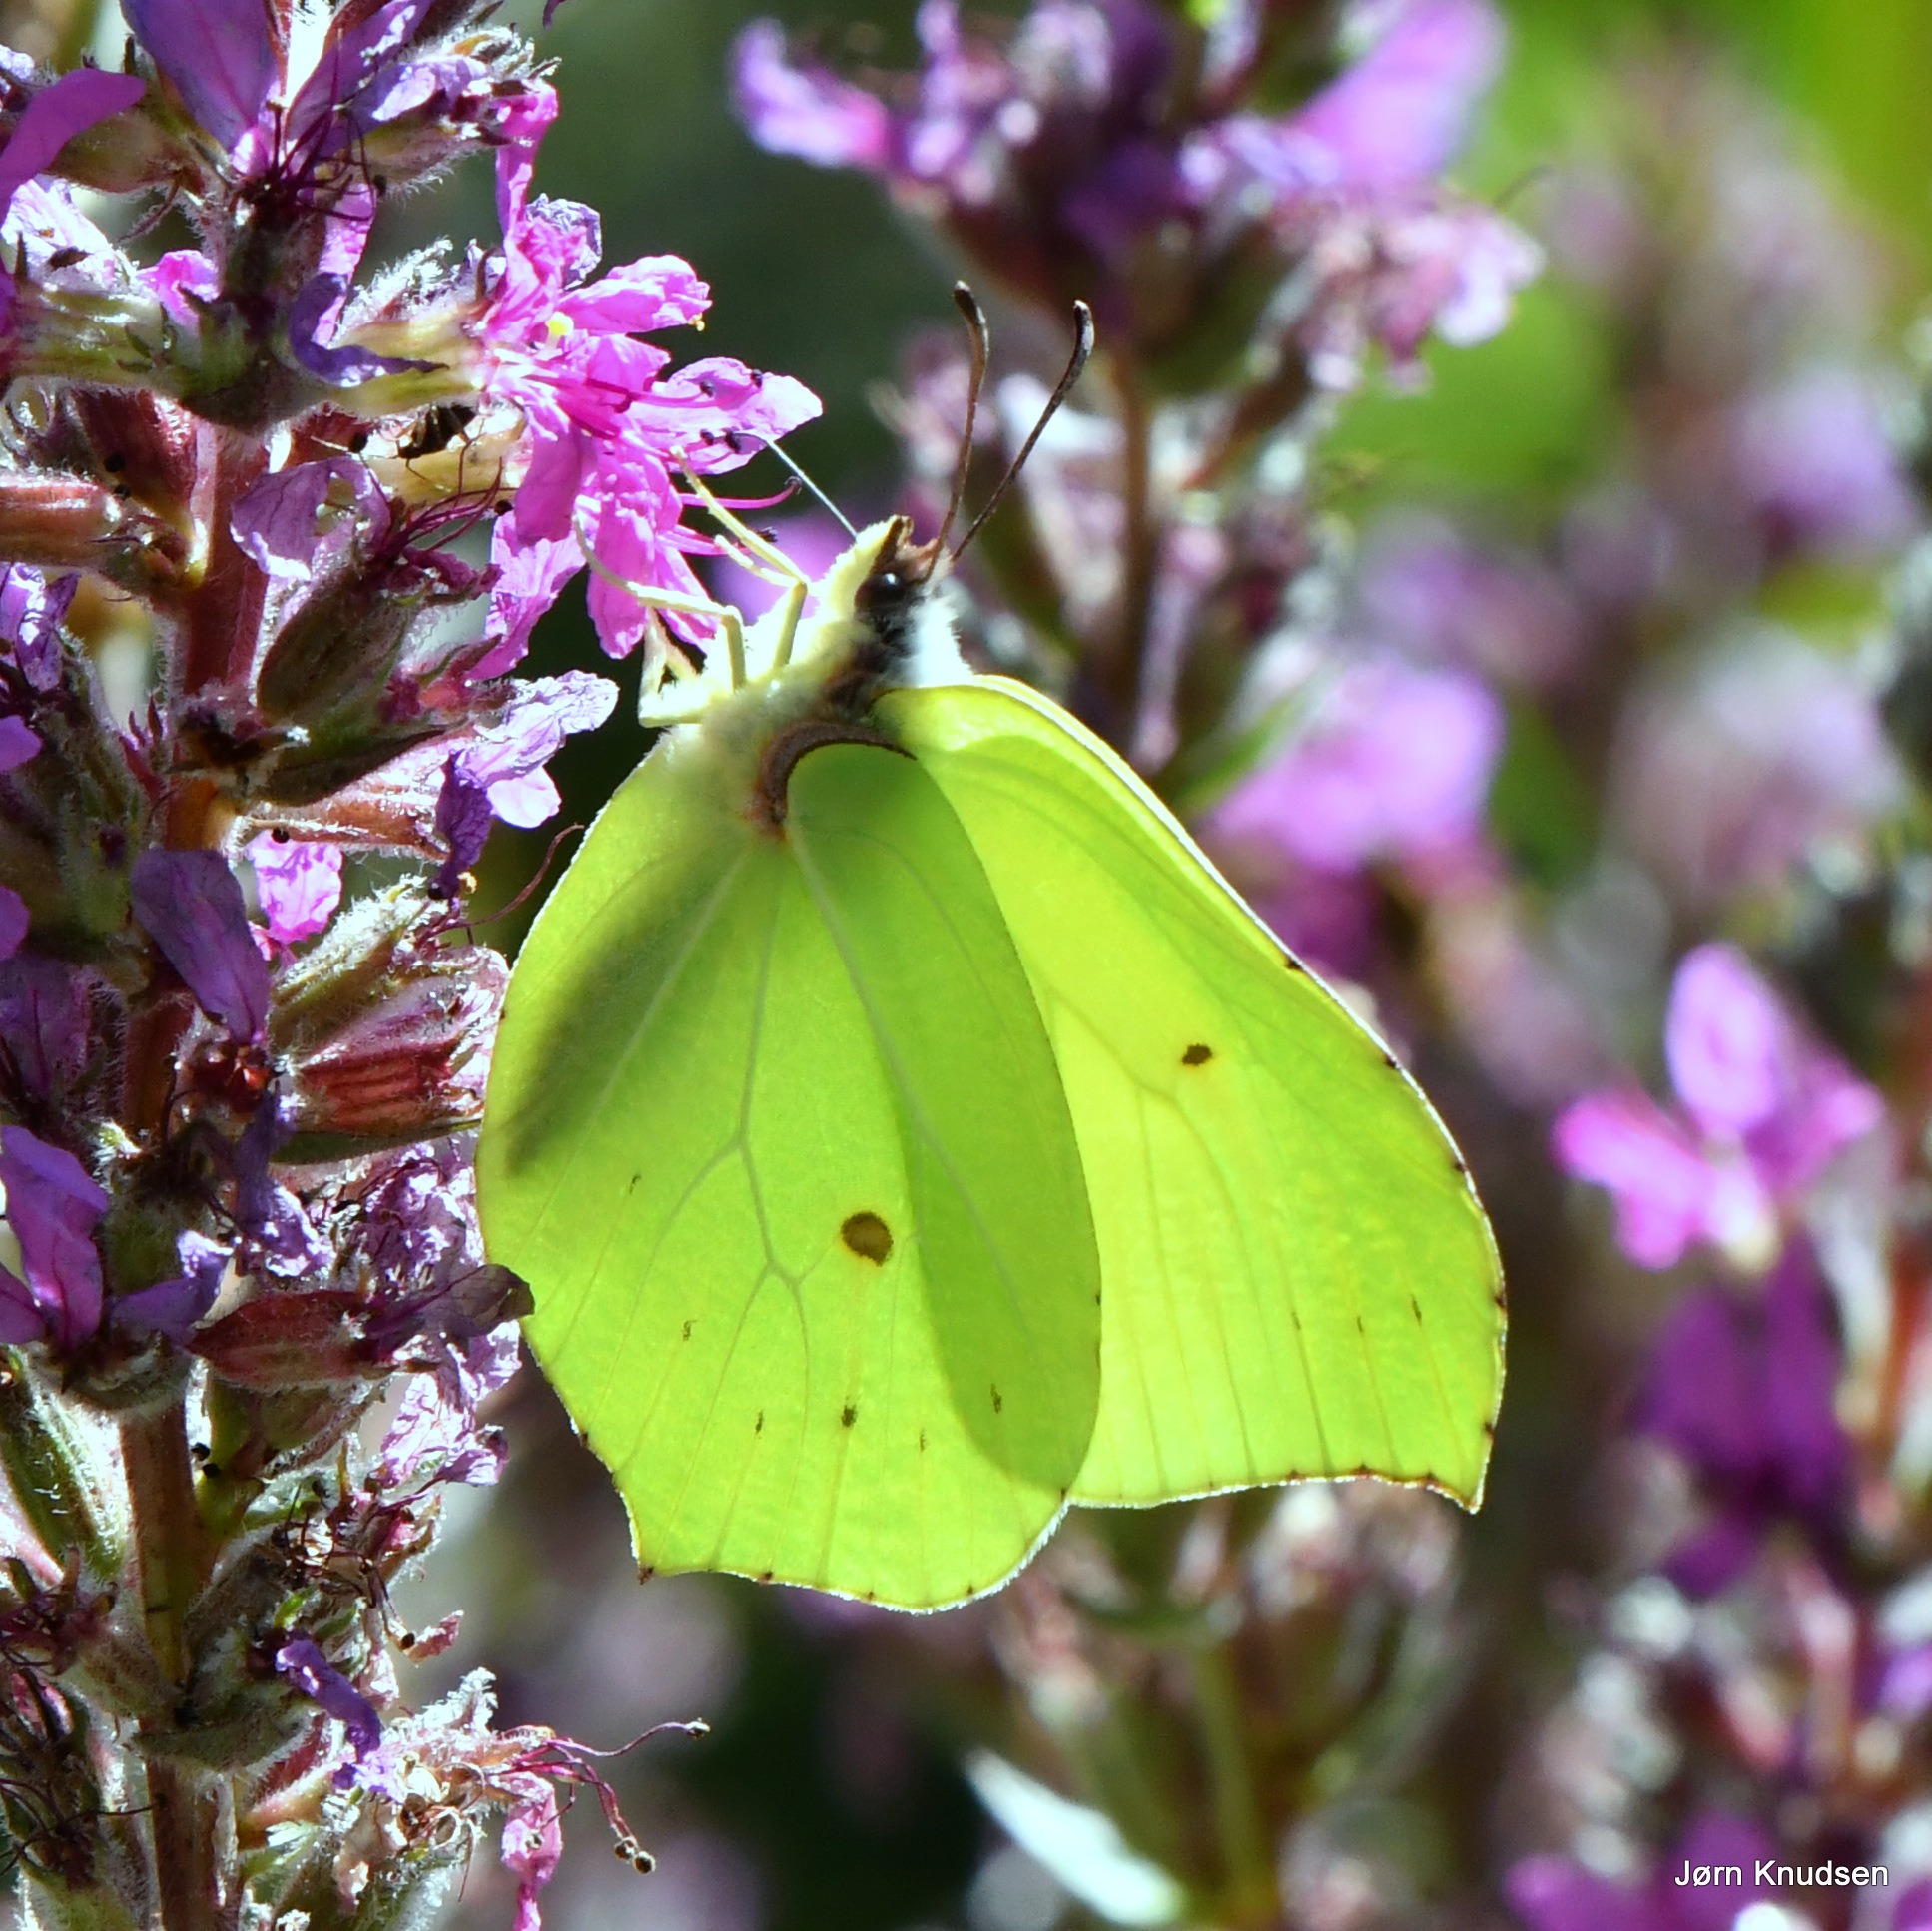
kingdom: Animalia
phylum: Arthropoda
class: Insecta
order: Lepidoptera
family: Pieridae
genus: Gonepteryx
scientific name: Gonepteryx rhamni
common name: Citronsommerfugl
